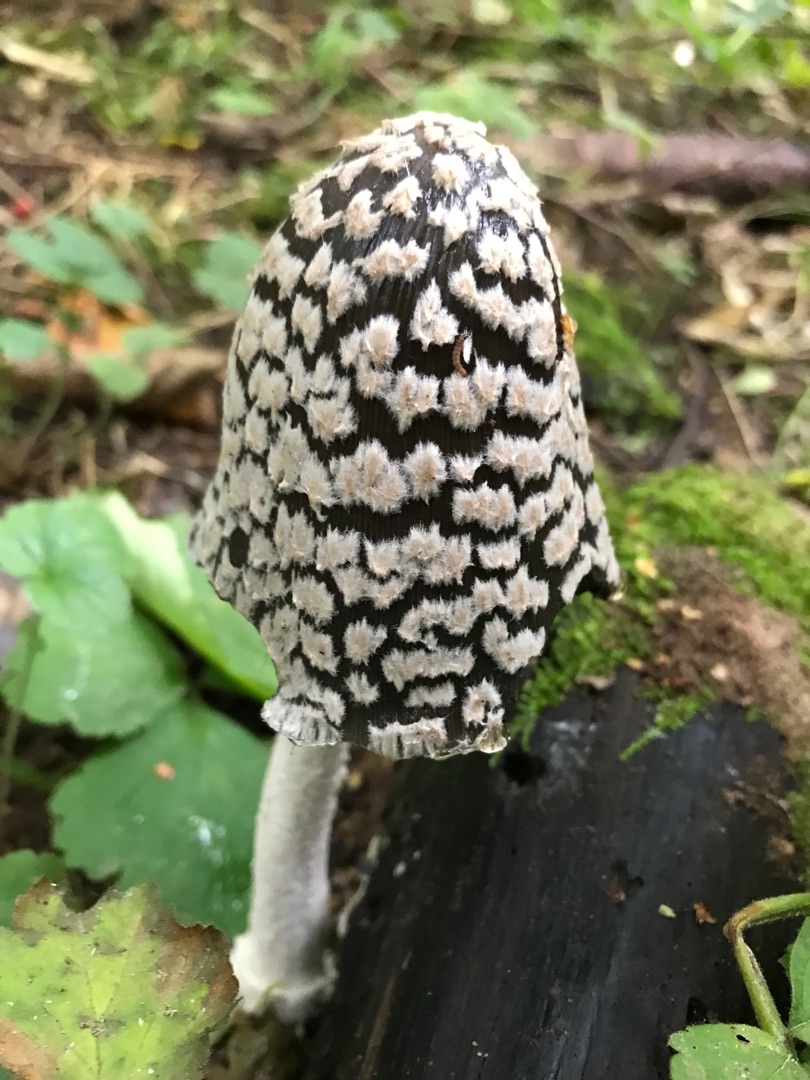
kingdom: Fungi
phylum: Basidiomycota
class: Agaricomycetes
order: Agaricales
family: Psathyrellaceae
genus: Coprinopsis
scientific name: Coprinopsis picacea
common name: Skade-blækhat
